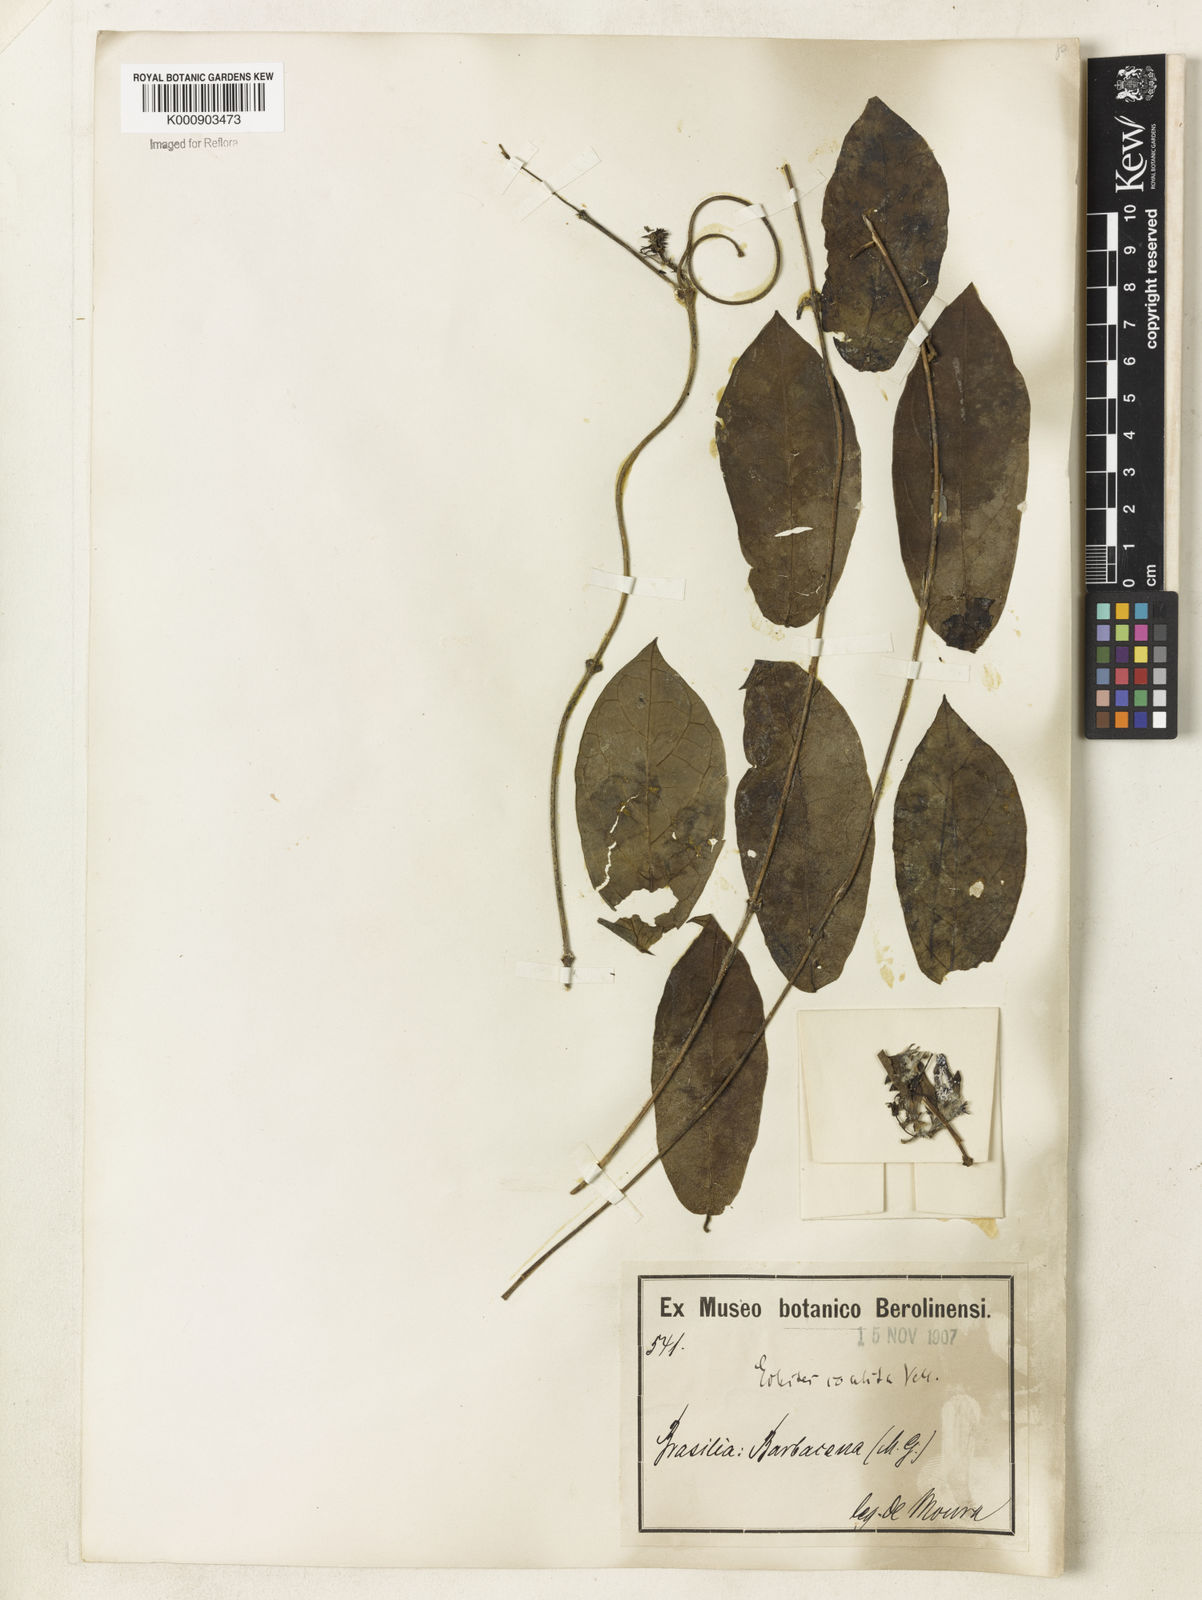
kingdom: Plantae
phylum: Tracheophyta
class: Magnoliopsida
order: Gentianales
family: Apocynaceae
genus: Prestonia
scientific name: Prestonia coalita
